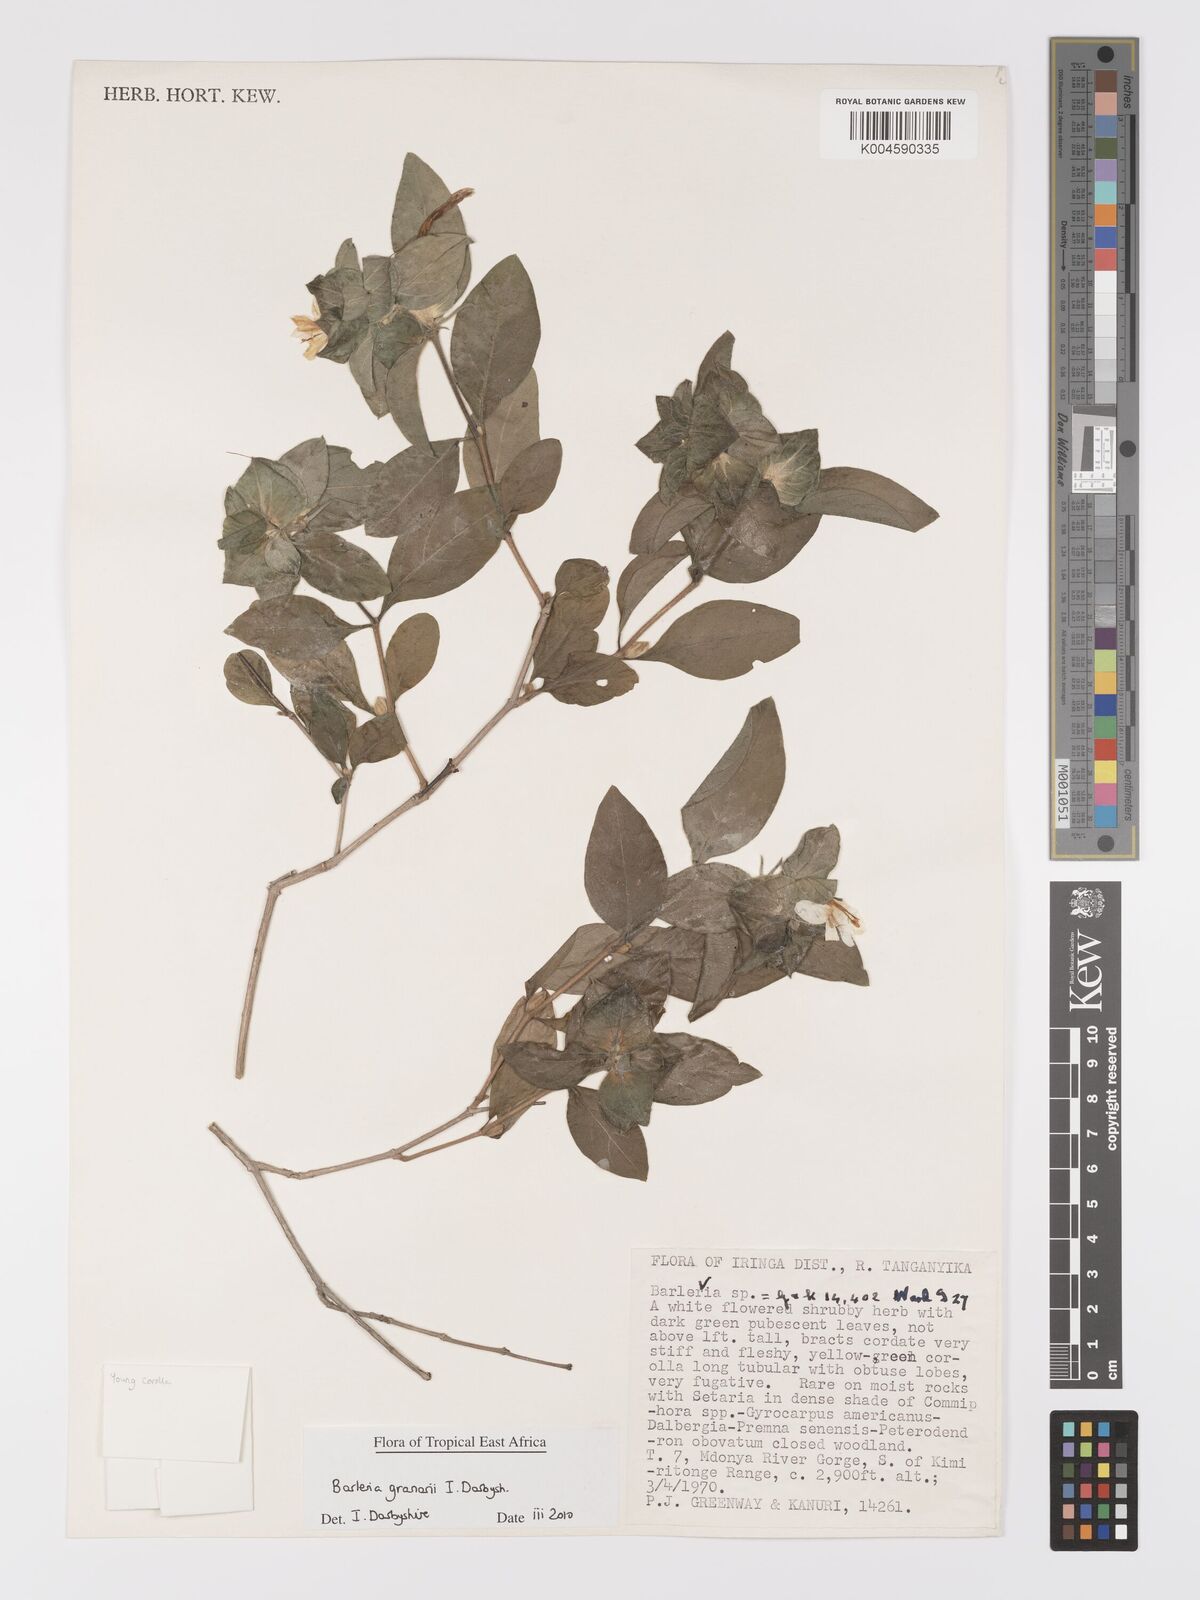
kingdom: Plantae
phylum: Tracheophyta
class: Magnoliopsida
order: Lamiales
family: Acanthaceae
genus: Barleria
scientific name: Barleria granarii
